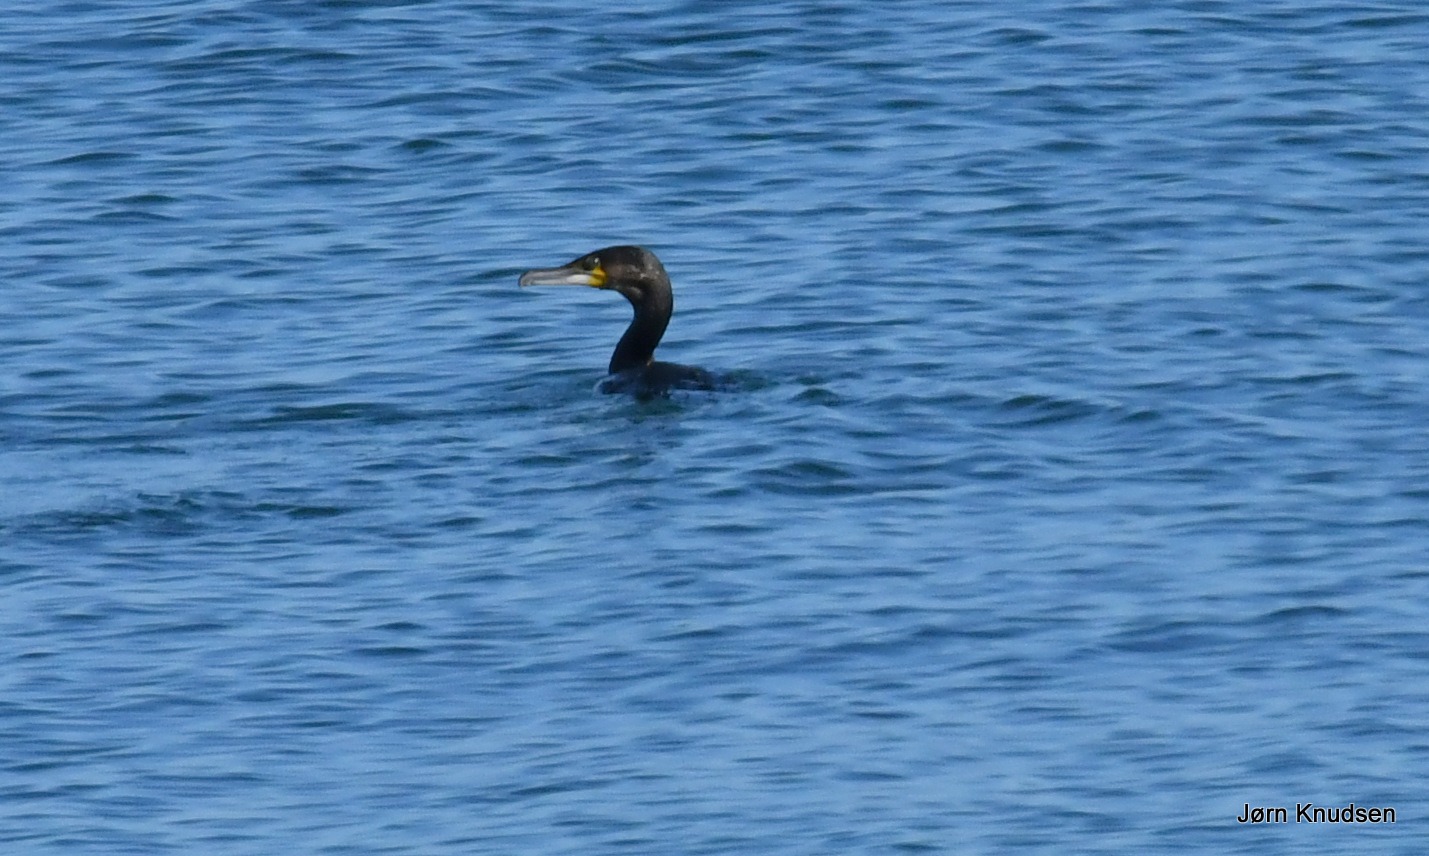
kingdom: Animalia
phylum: Chordata
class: Aves
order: Suliformes
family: Phalacrocoracidae
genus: Phalacrocorax
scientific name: Phalacrocorax carbo
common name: Skarv
